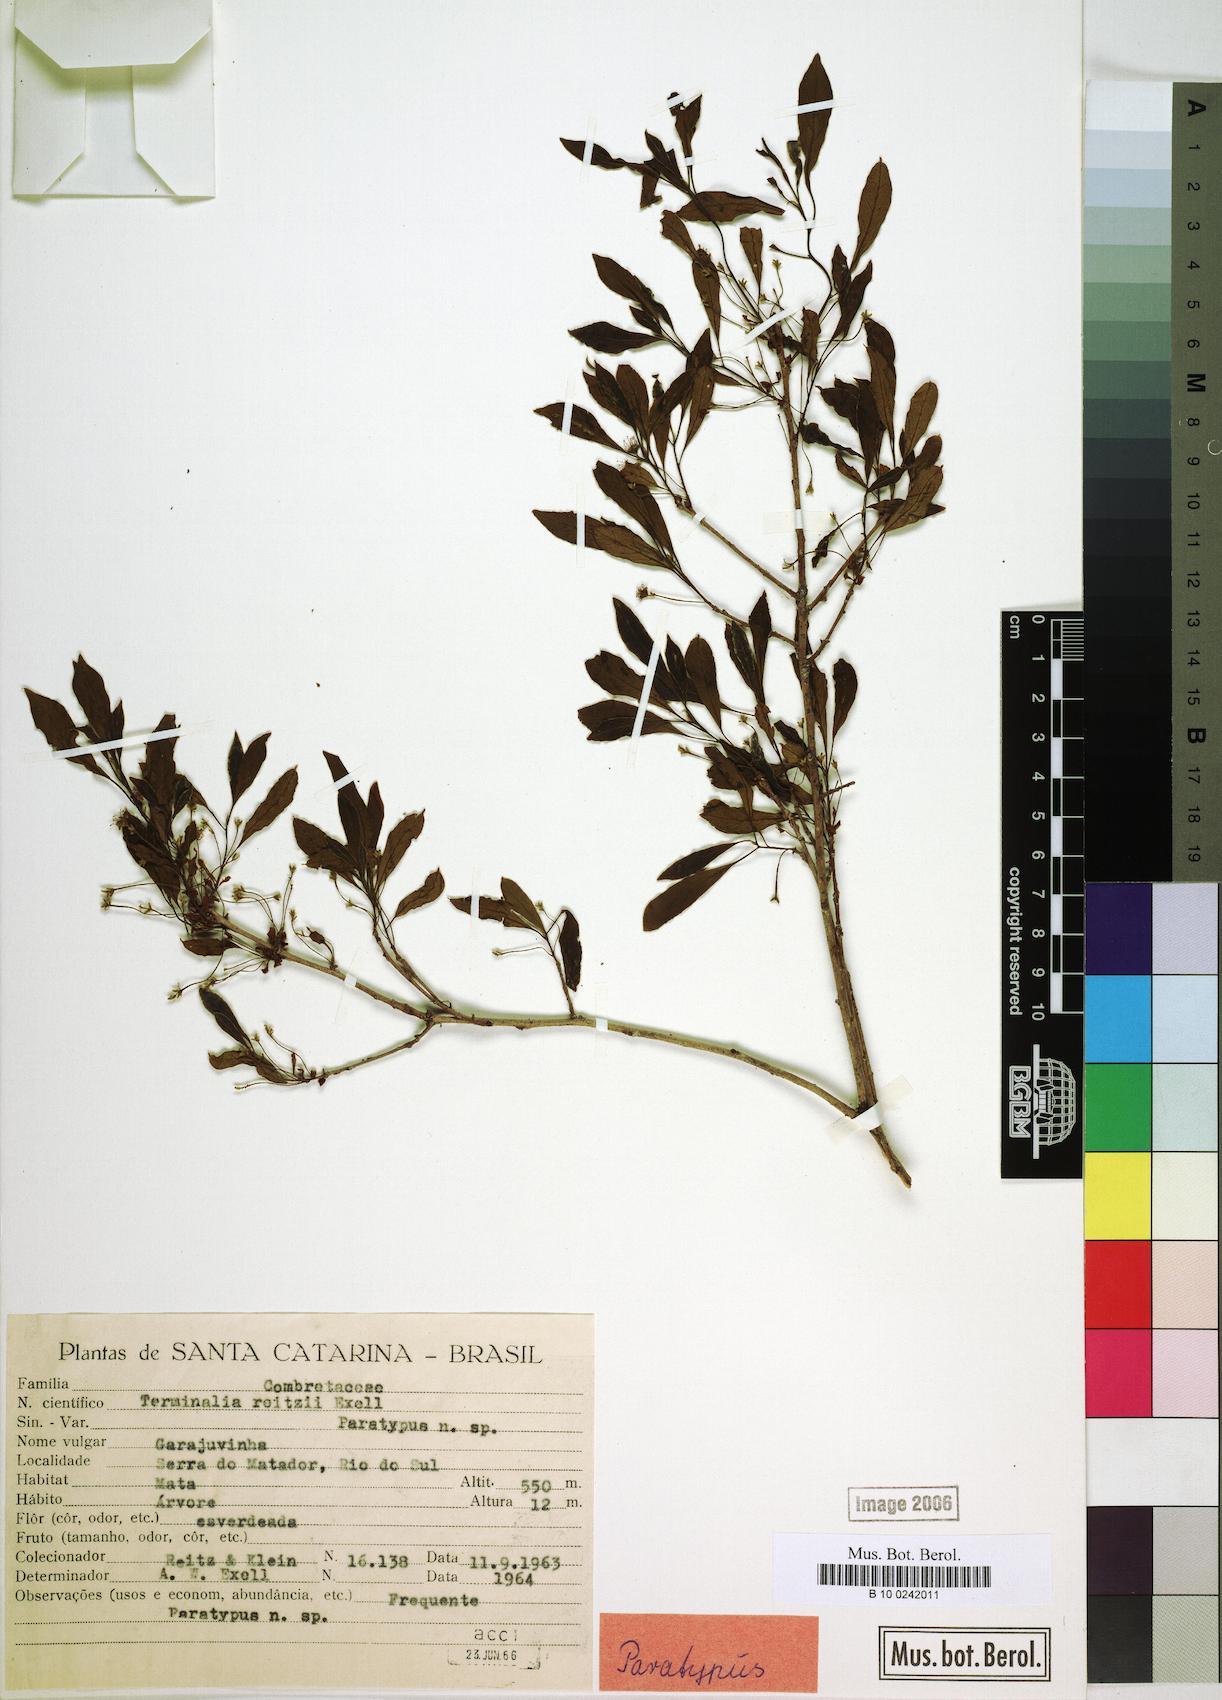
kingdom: Plantae
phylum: Tracheophyta
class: Magnoliopsida
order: Myrtales
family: Combretaceae
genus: Terminalia
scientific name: Terminalia reitzii
